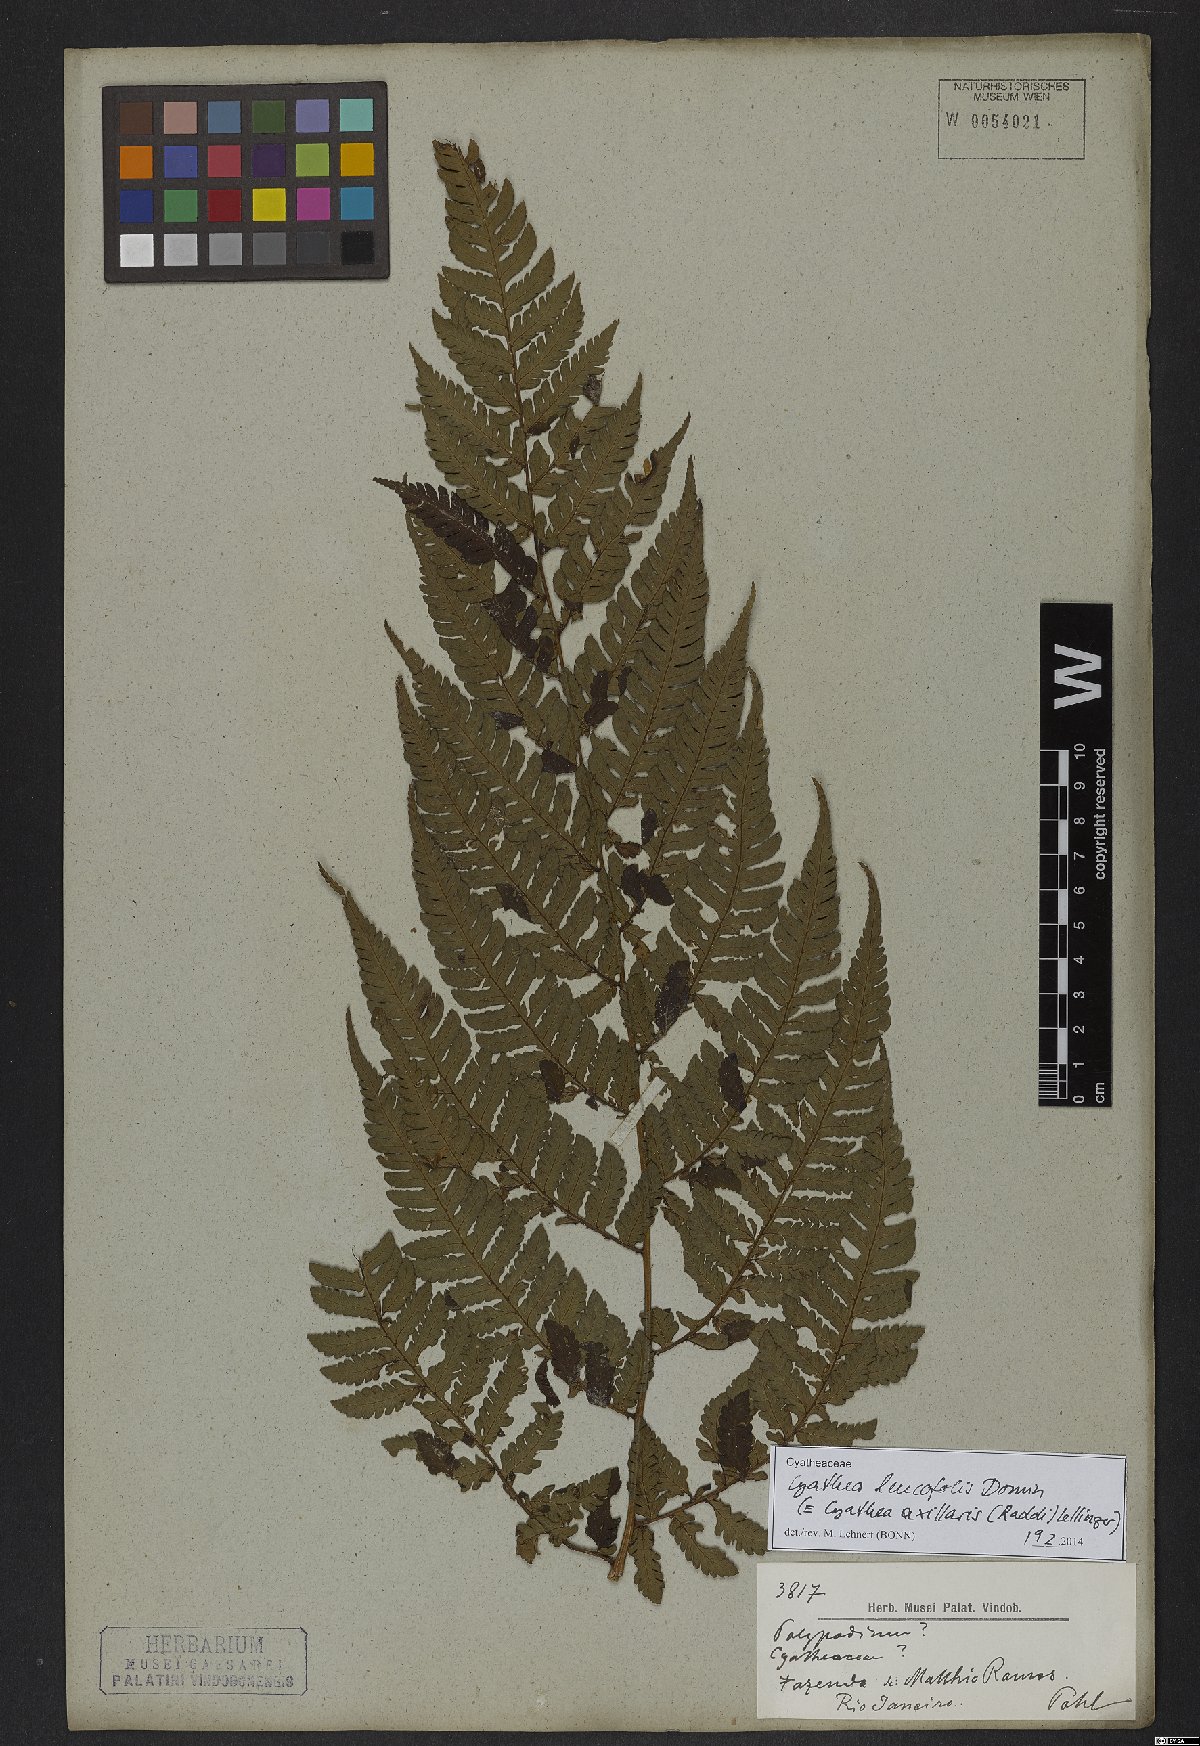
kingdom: Plantae
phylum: Tracheophyta
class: Polypodiopsida
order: Cyatheales
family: Cyatheaceae
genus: Cyathea
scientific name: Cyathea leucofolis
